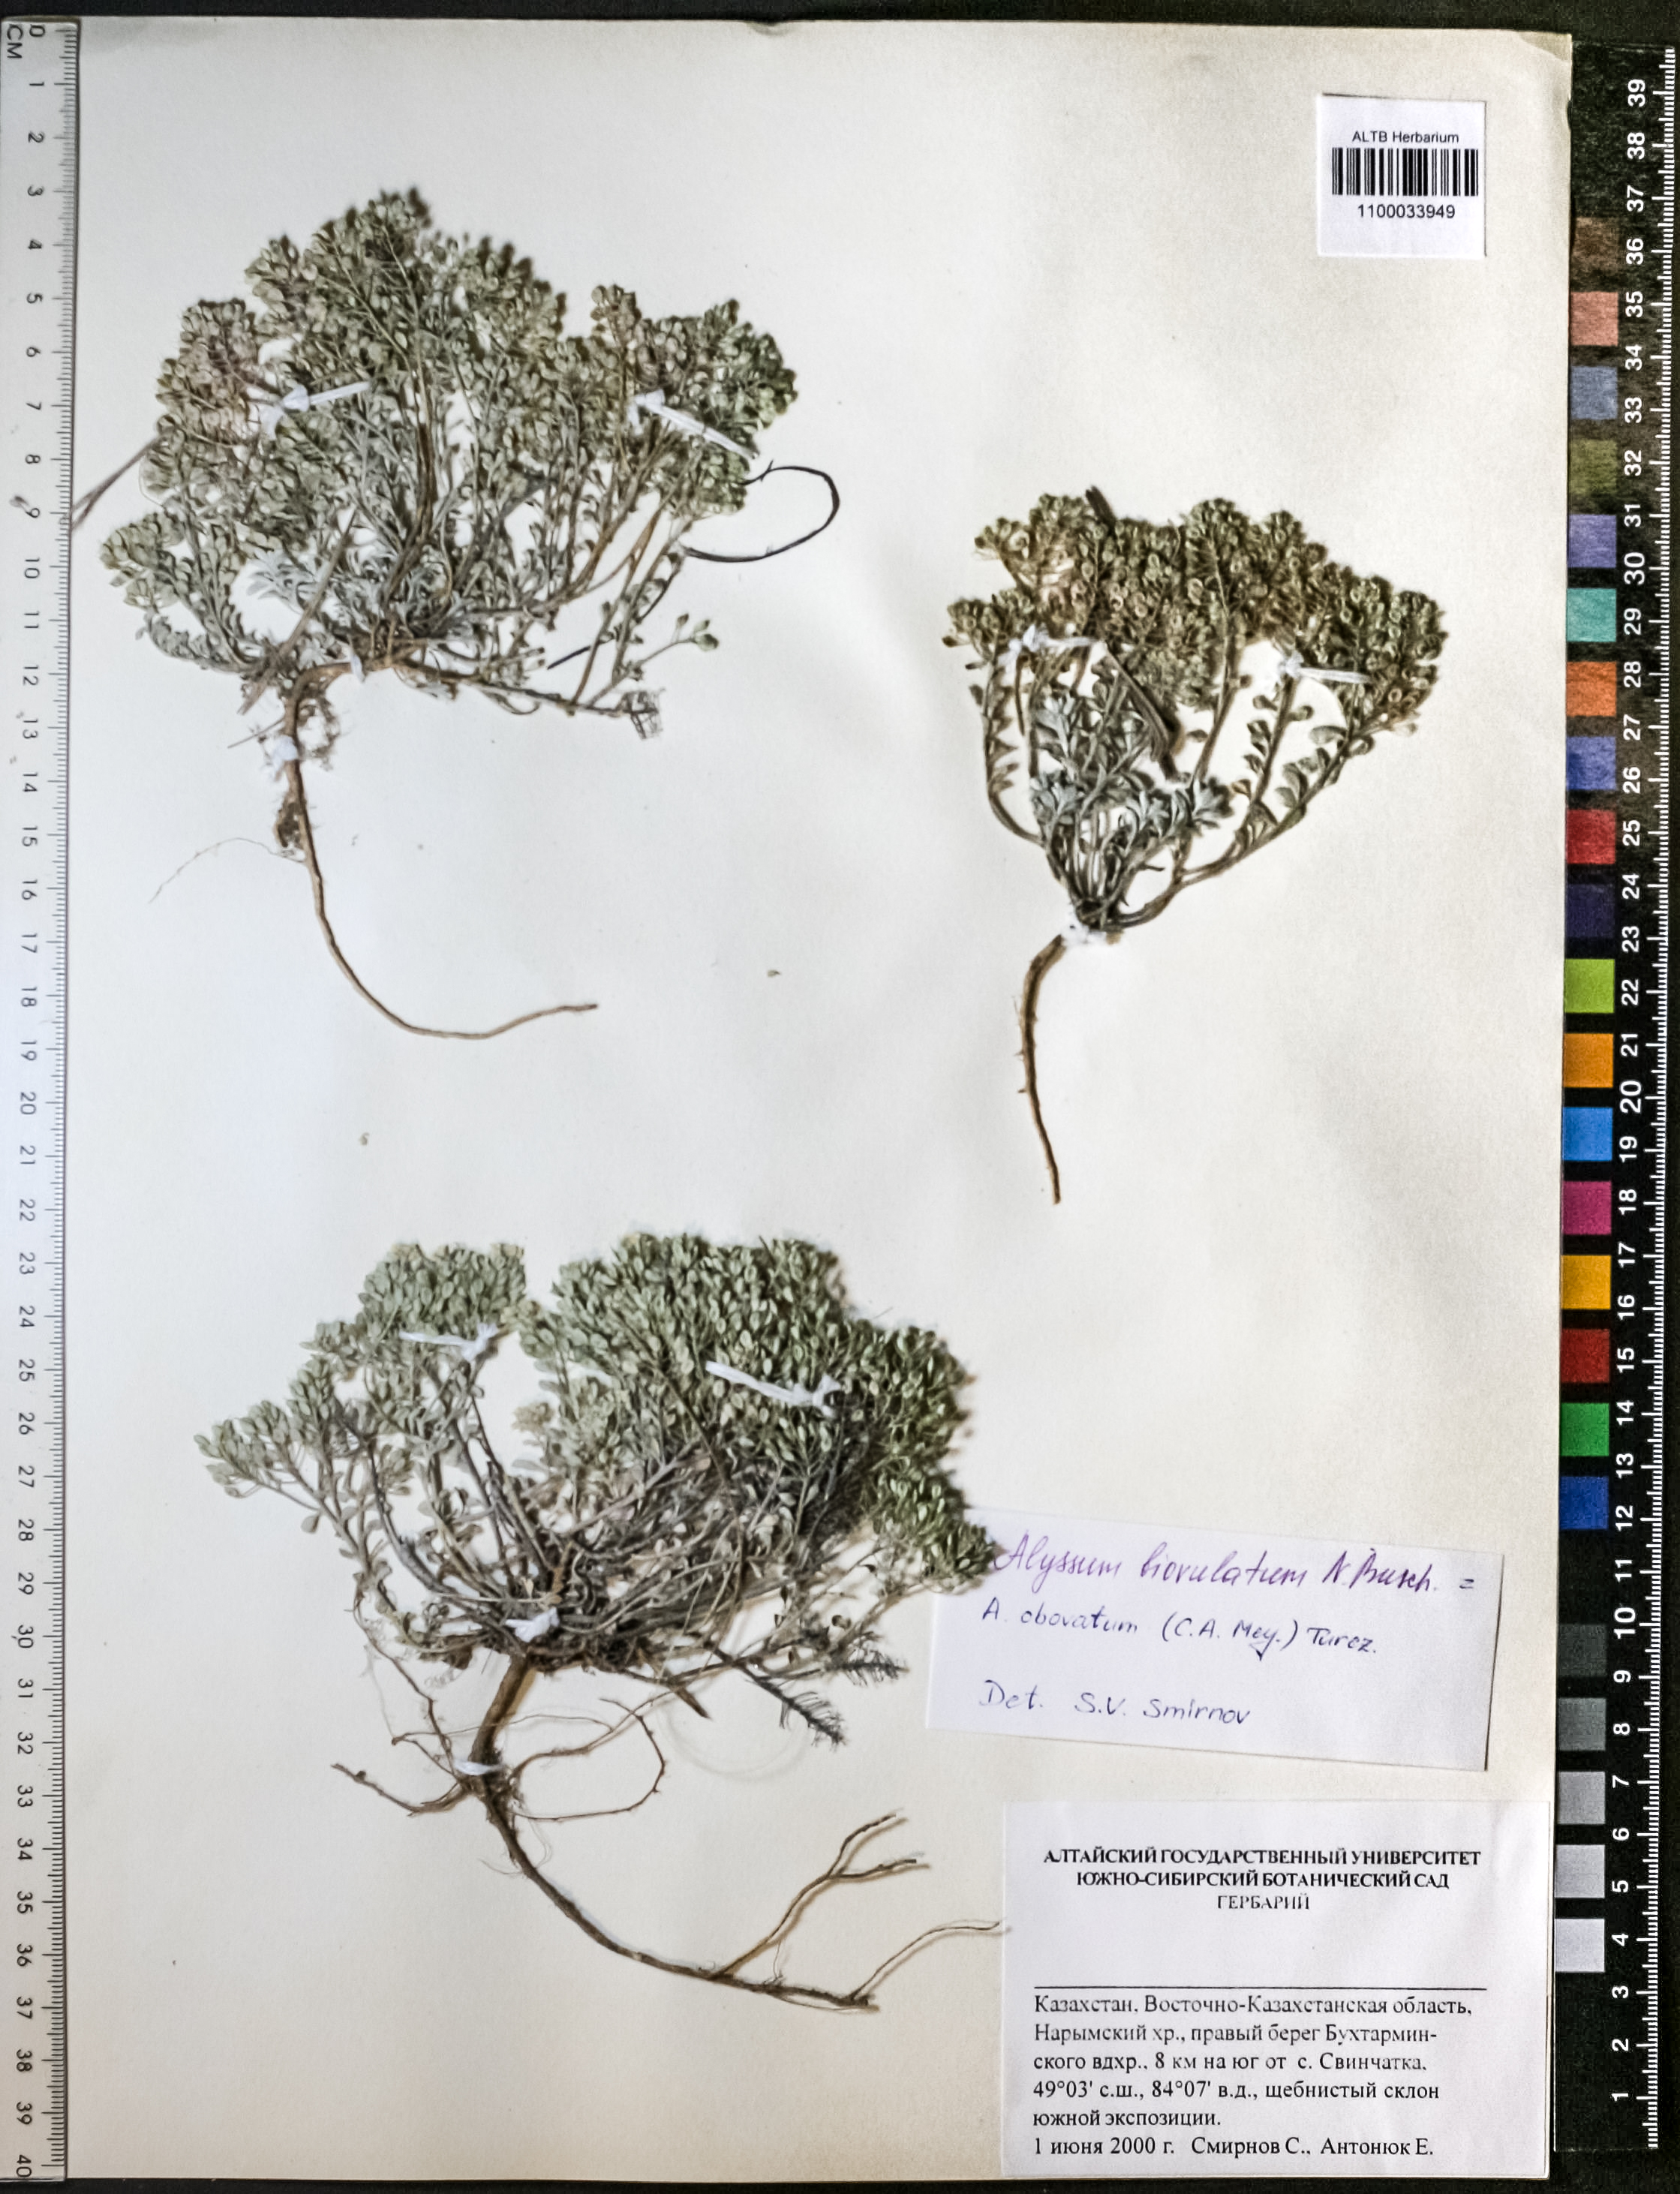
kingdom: Plantae
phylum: Tracheophyta
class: Magnoliopsida
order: Brassicales
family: Brassicaceae
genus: Odontarrhena
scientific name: Odontarrhena obovata
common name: American alyssum
